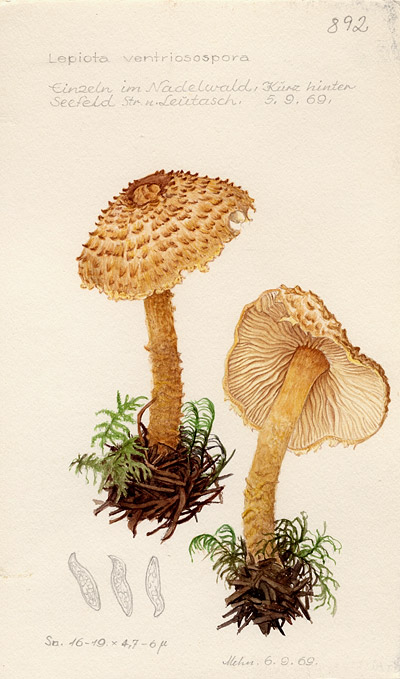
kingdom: Fungi
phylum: Basidiomycota
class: Agaricomycetes
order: Agaricales
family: Agaricaceae
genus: Lepiota
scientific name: Lepiota magnispora
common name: Yellowfoot dapperling
